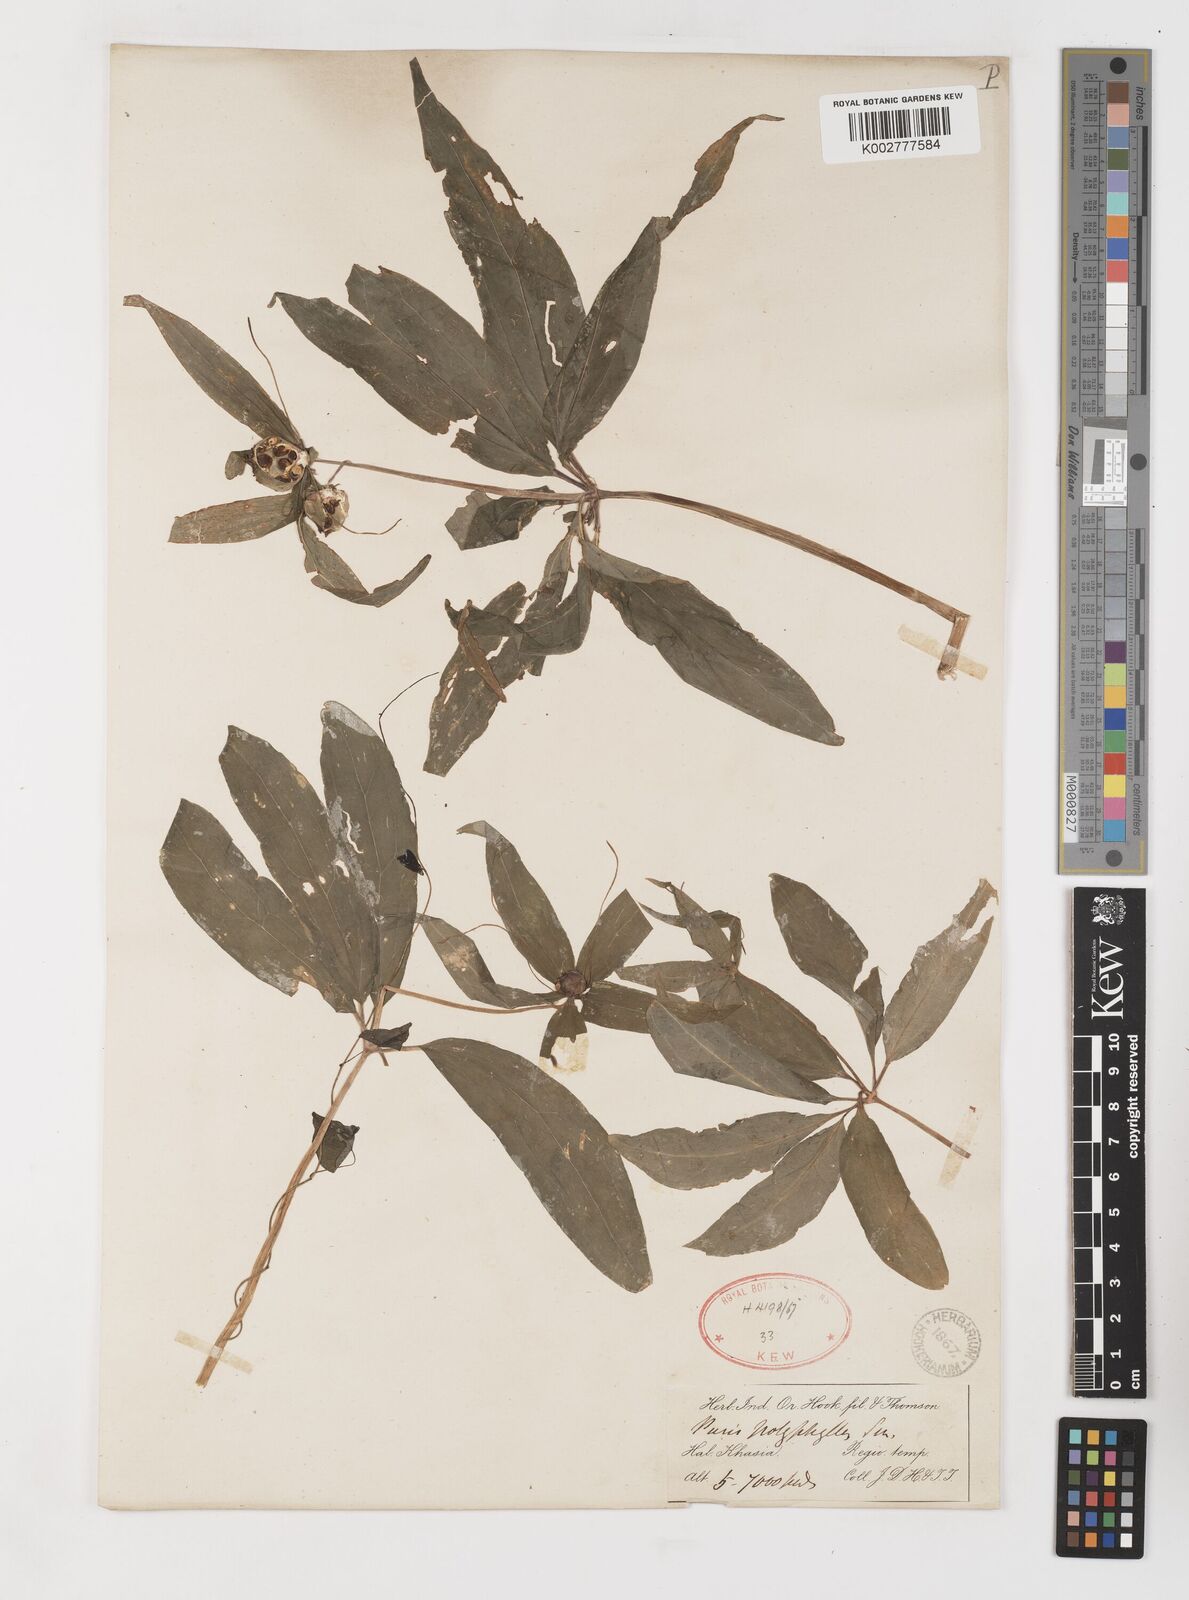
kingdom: Plantae
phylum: Tracheophyta
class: Liliopsida
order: Liliales
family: Melanthiaceae
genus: Paris
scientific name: Paris polyphylla
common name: Love apple
